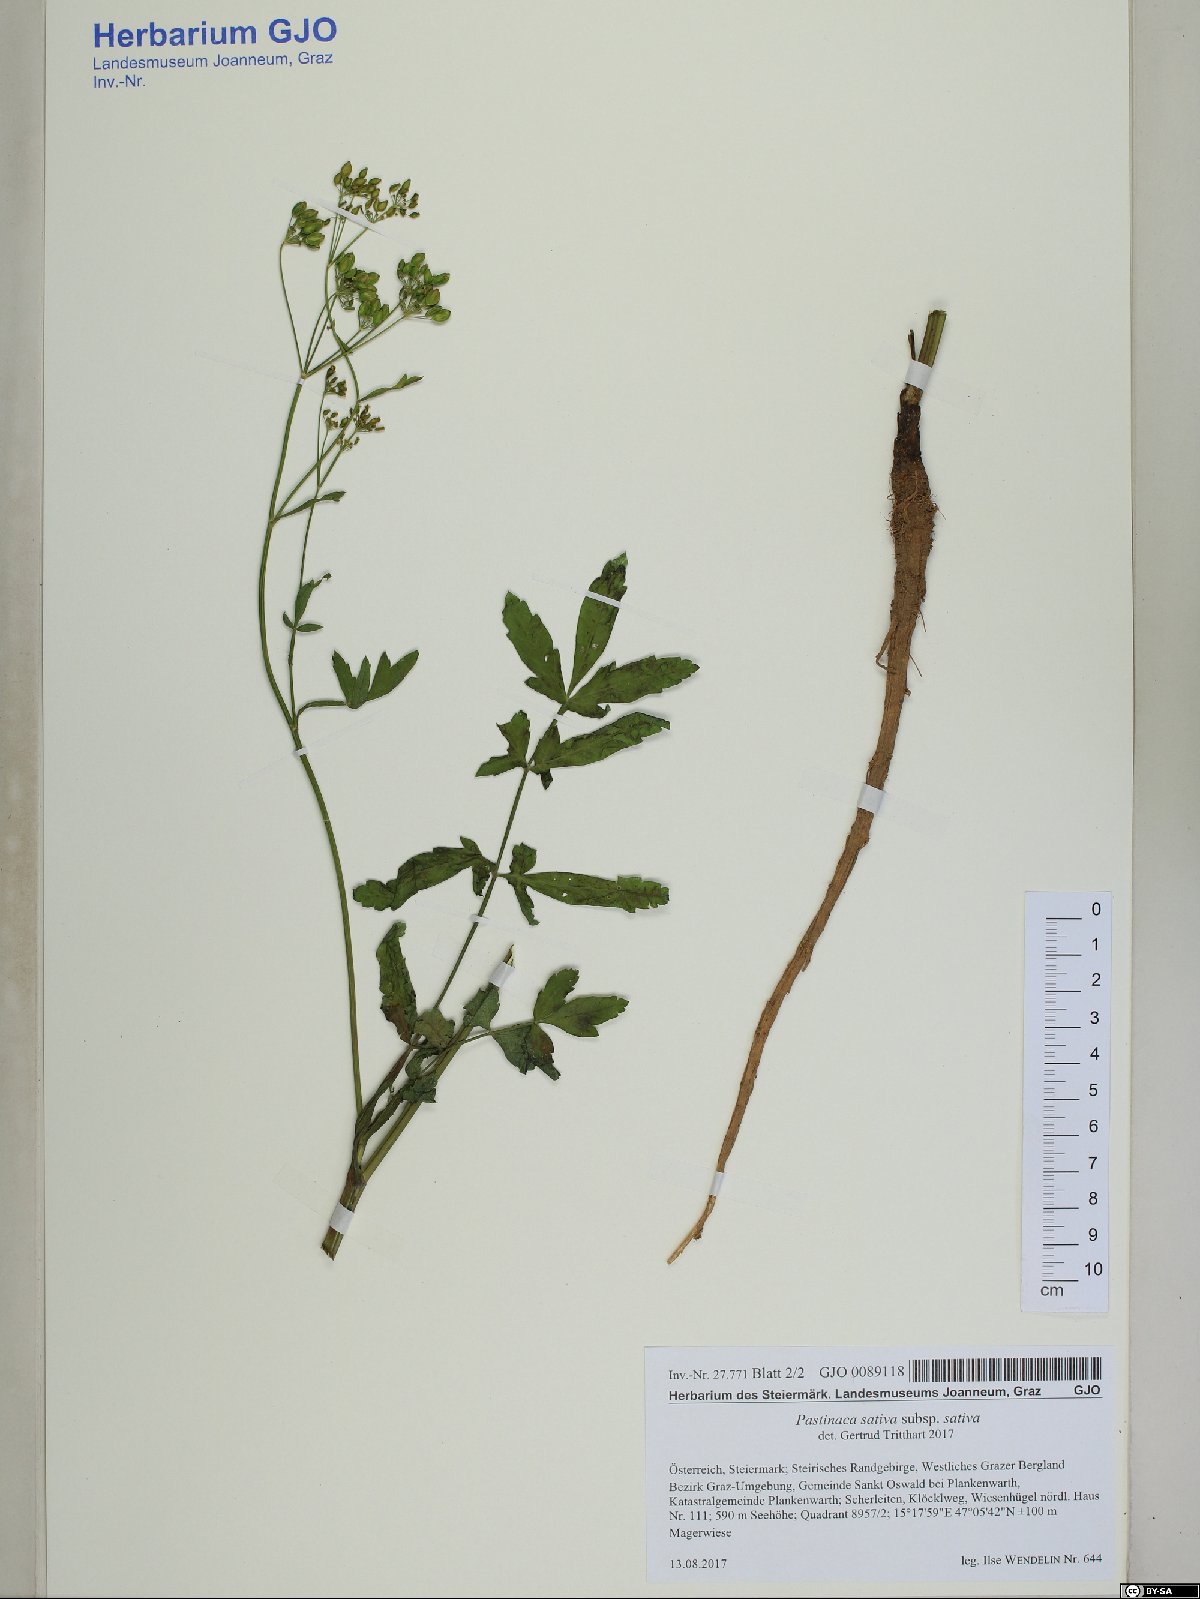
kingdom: Plantae
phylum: Tracheophyta
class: Magnoliopsida
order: Apiales
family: Apiaceae
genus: Pastinaca
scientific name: Pastinaca sativa
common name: Wild parsnip
